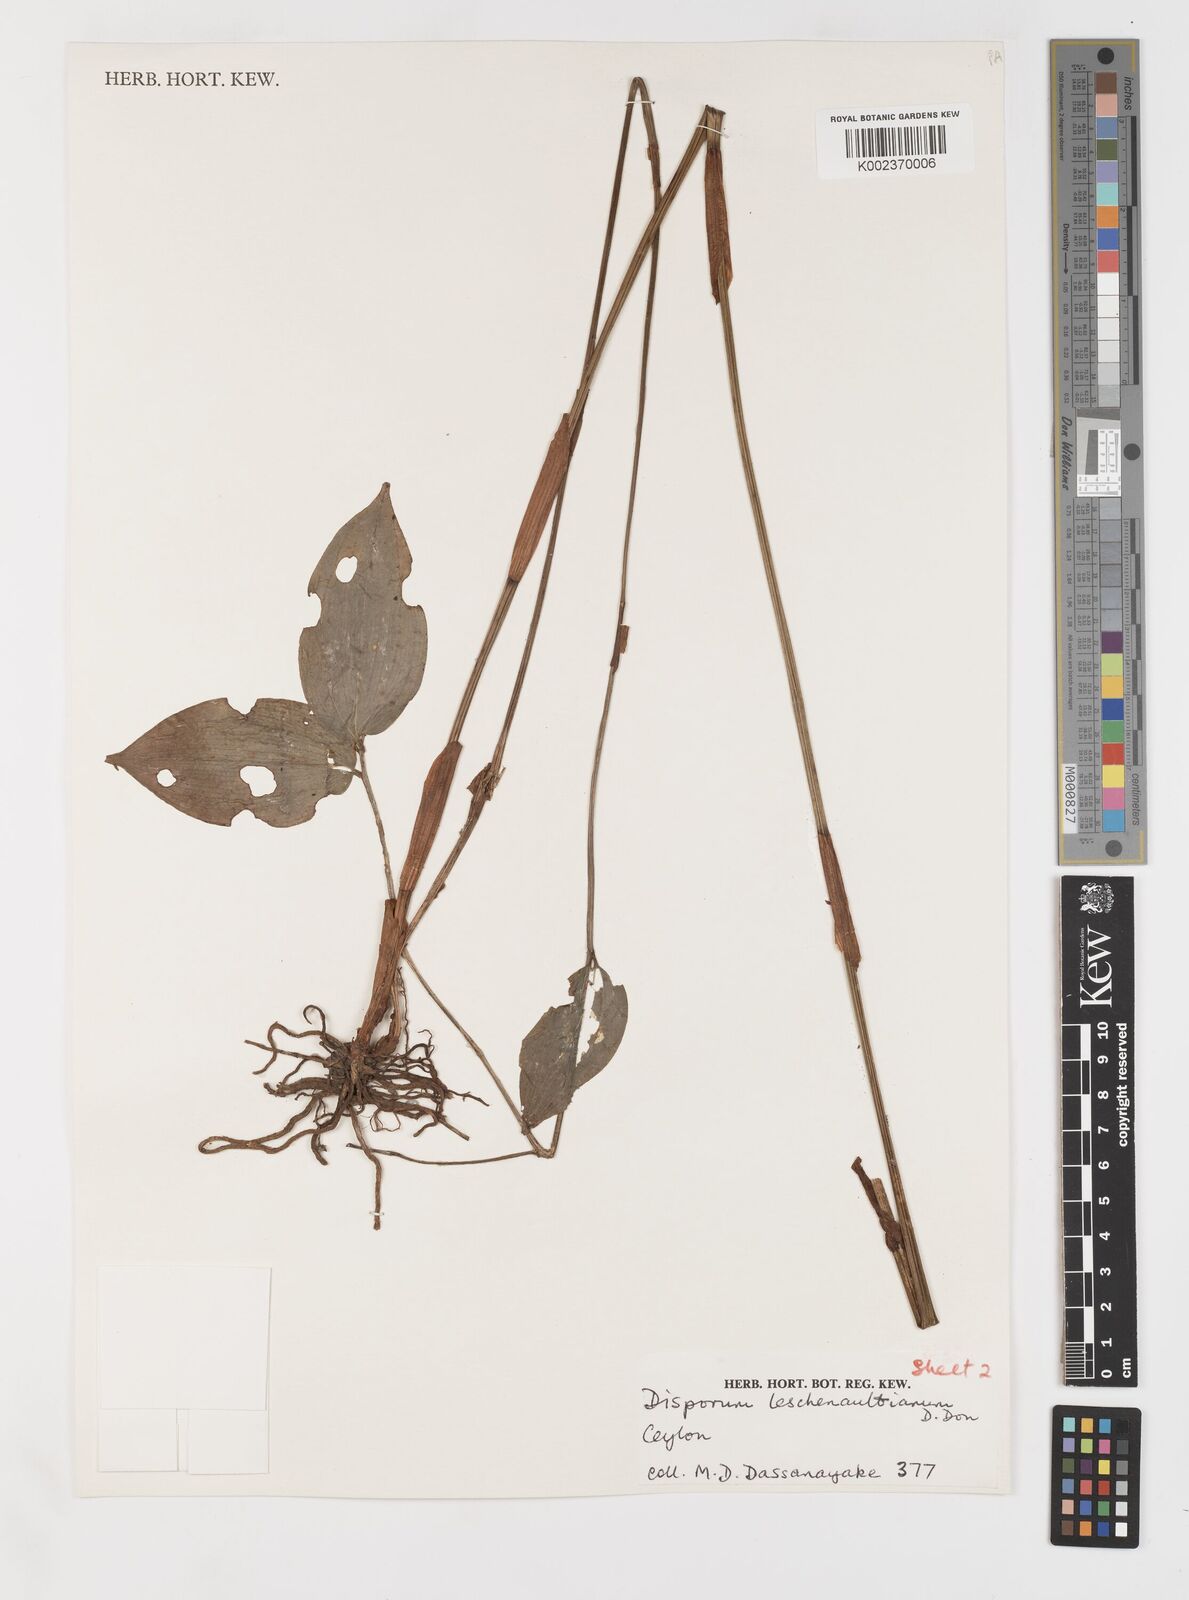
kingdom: Plantae
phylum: Tracheophyta
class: Liliopsida
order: Liliales
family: Colchicaceae
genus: Disporum
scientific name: Disporum cantoniense
